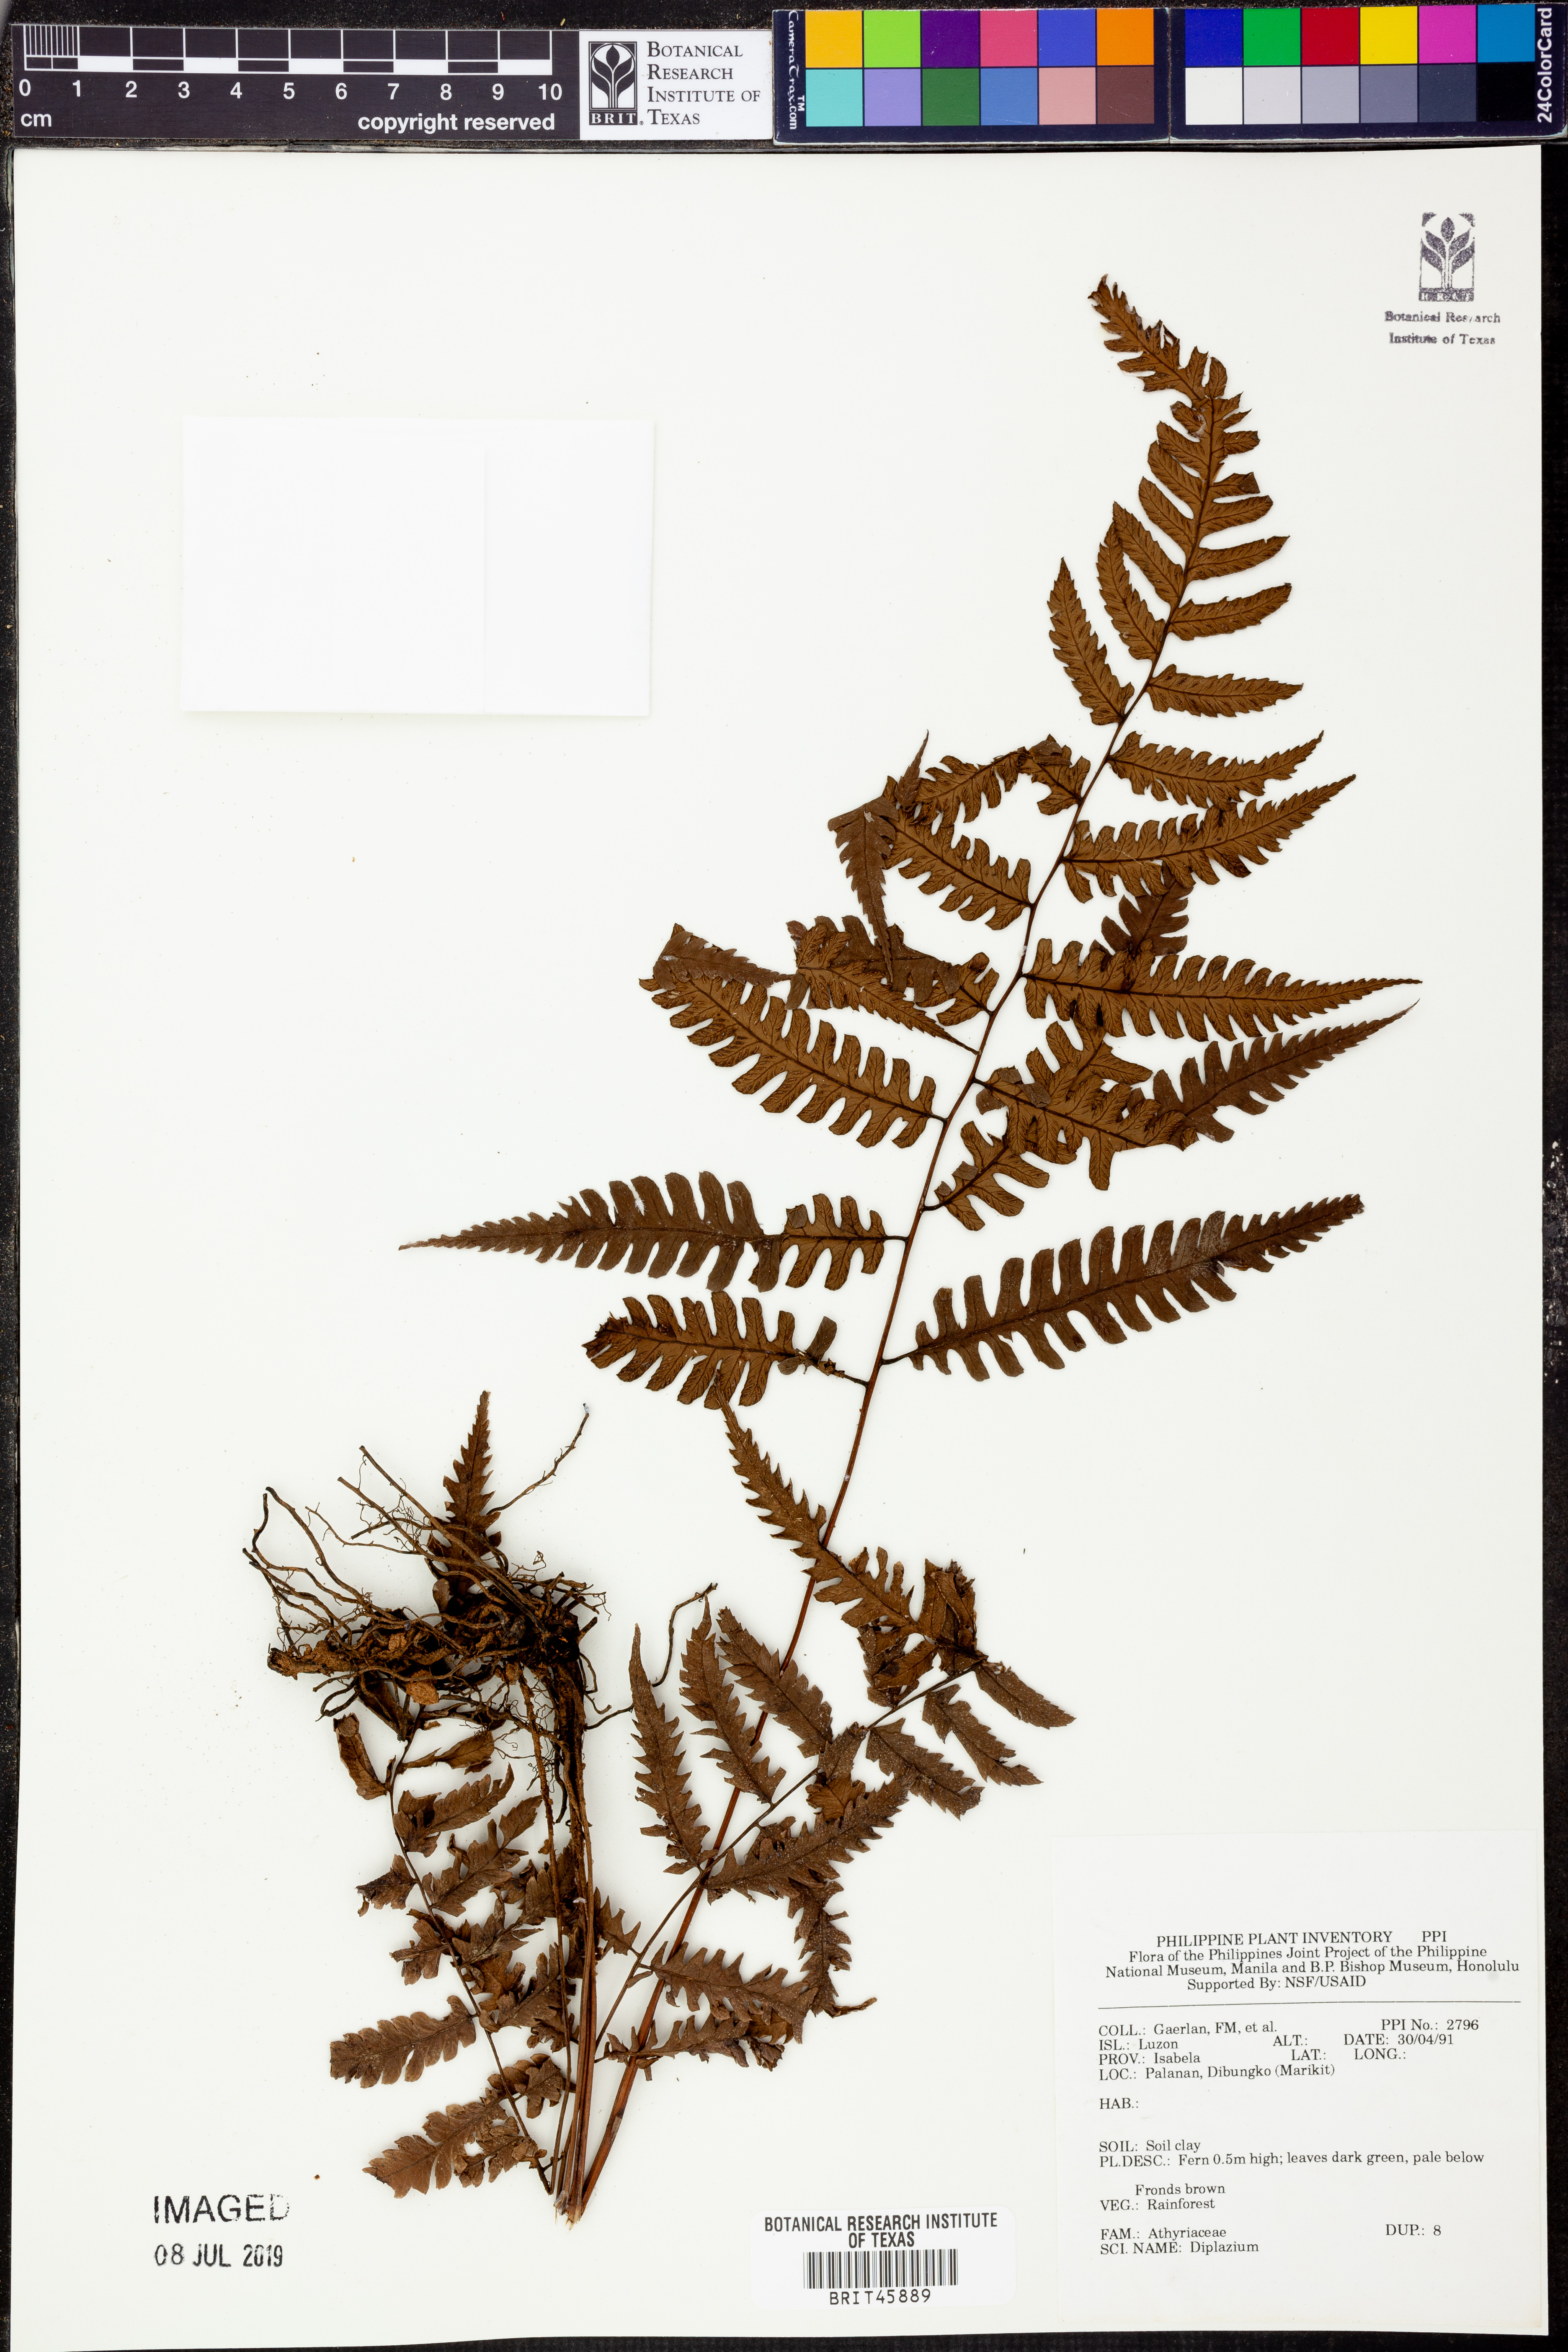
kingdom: Plantae
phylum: Tracheophyta
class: Polypodiopsida
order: Polypodiales
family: Athyriaceae
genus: Diplazium
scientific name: Diplazium
